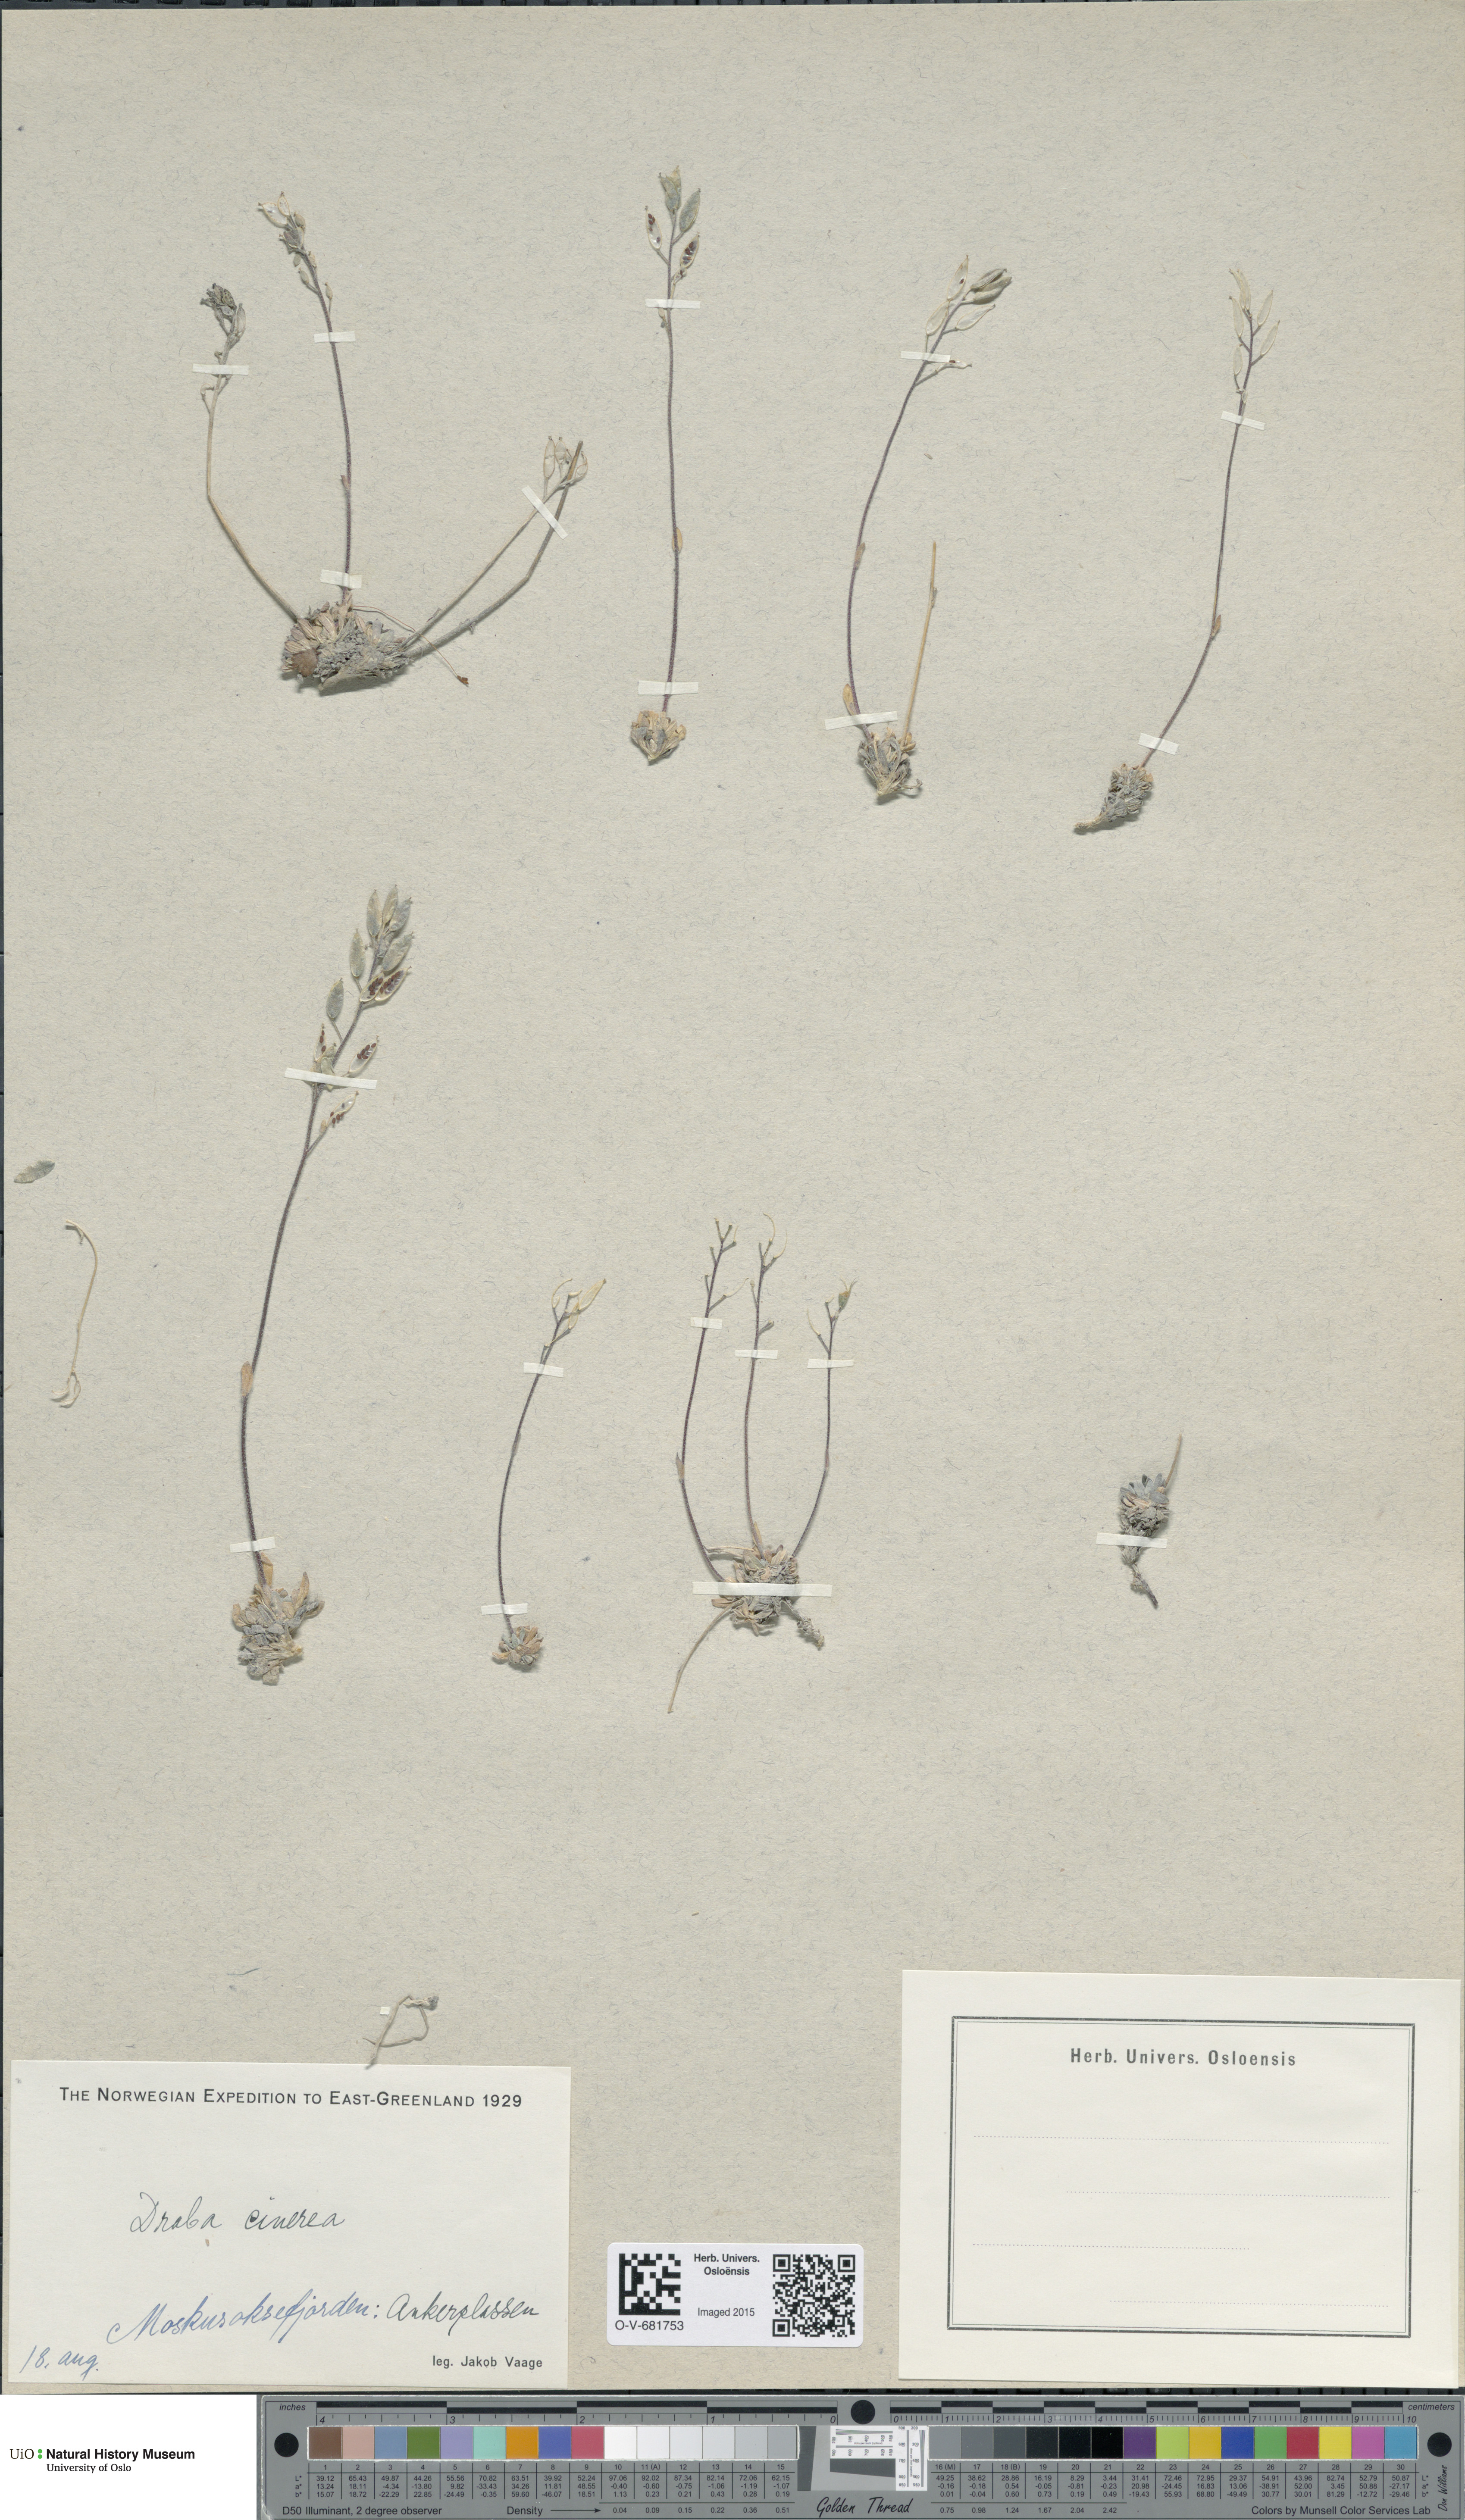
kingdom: Plantae
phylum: Tracheophyta
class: Magnoliopsida
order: Brassicales
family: Brassicaceae
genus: Draba
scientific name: Draba arctica
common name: Arctic draba
